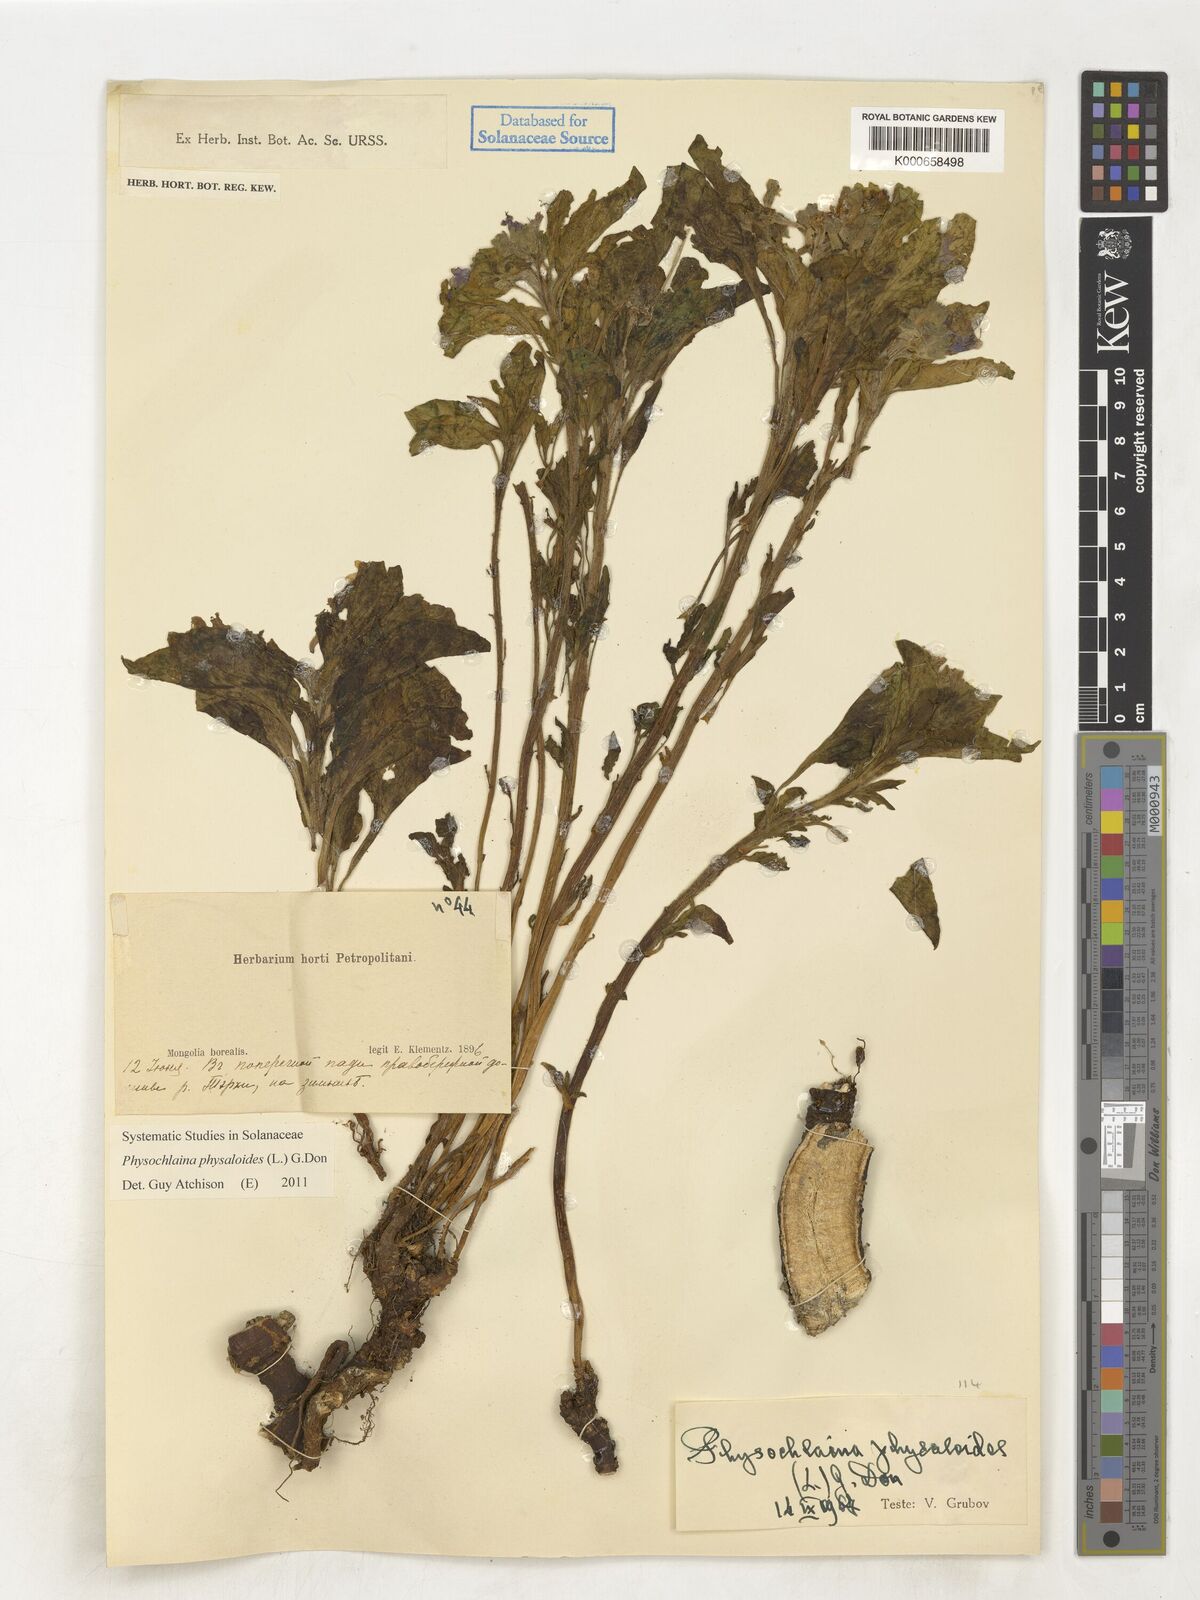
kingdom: Plantae
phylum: Tracheophyta
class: Magnoliopsida
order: Solanales
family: Solanaceae
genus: Physochlaina
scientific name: Physochlaina physaloides
